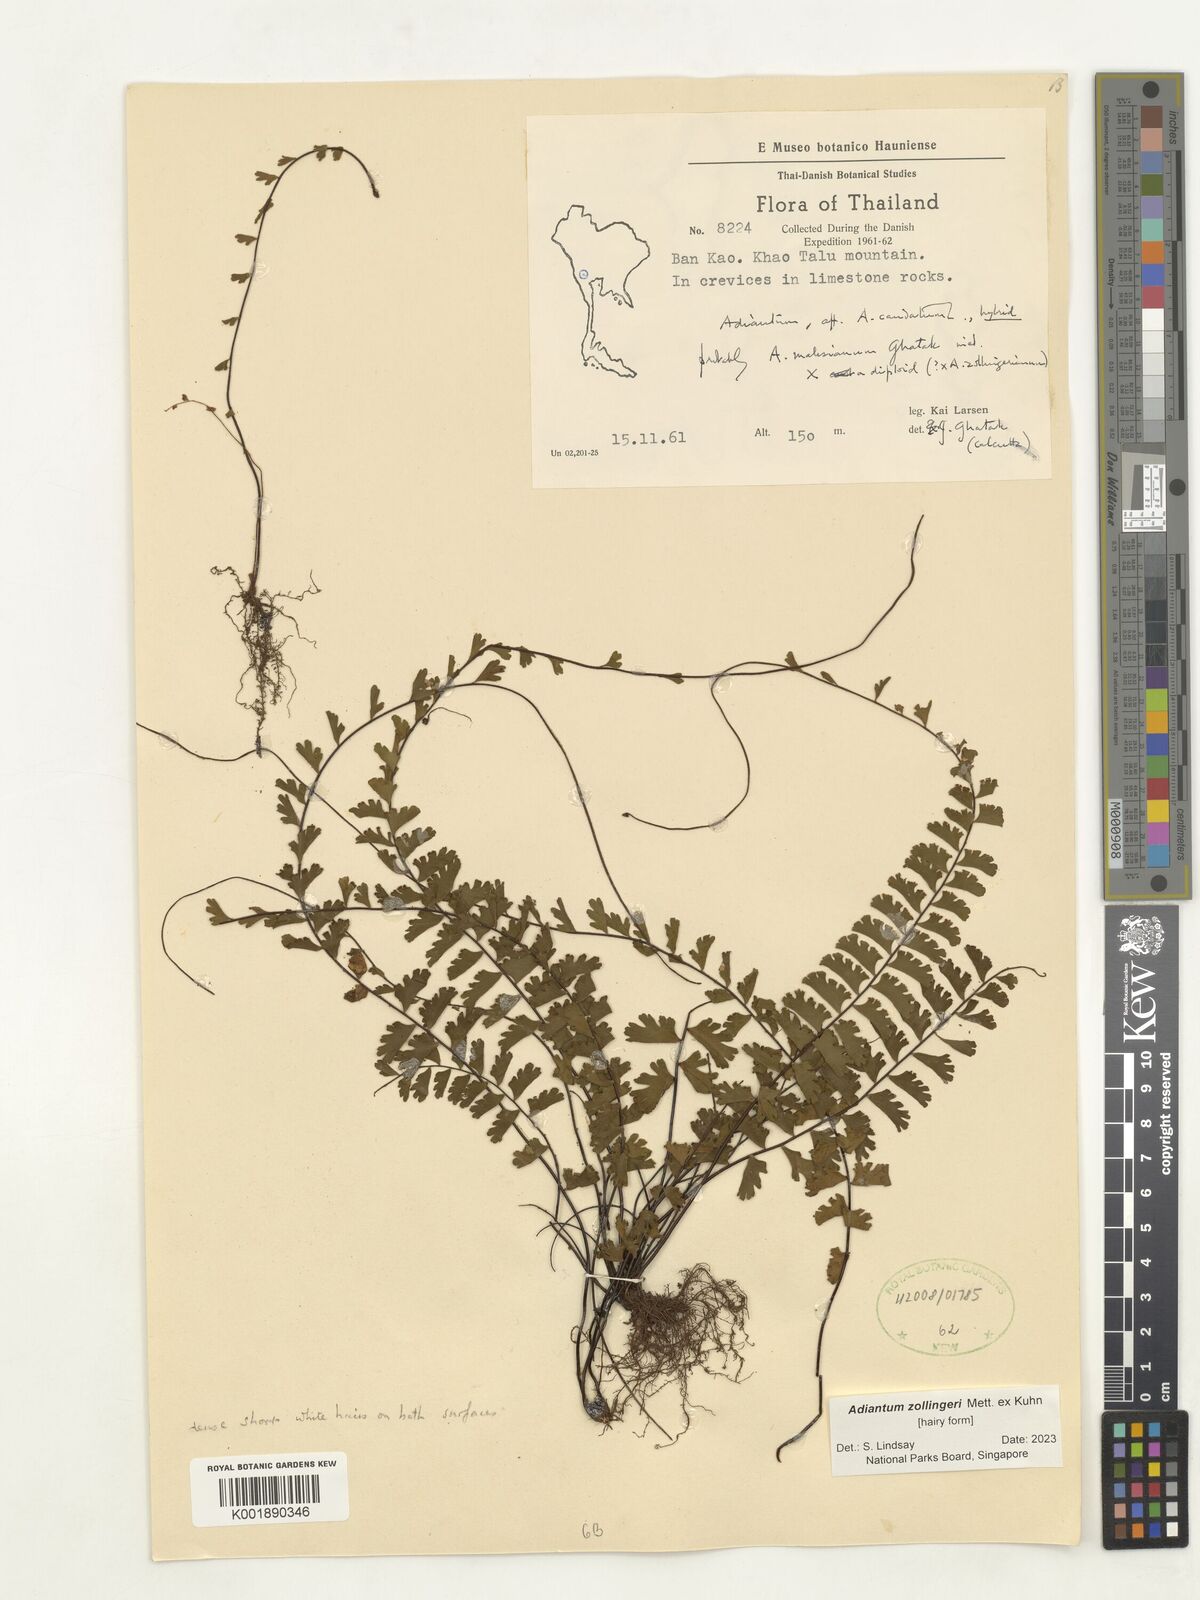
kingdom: Plantae
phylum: Tracheophyta
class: Polypodiopsida
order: Polypodiales
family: Pteridaceae
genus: Adiantum
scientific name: Adiantum zollingeri
